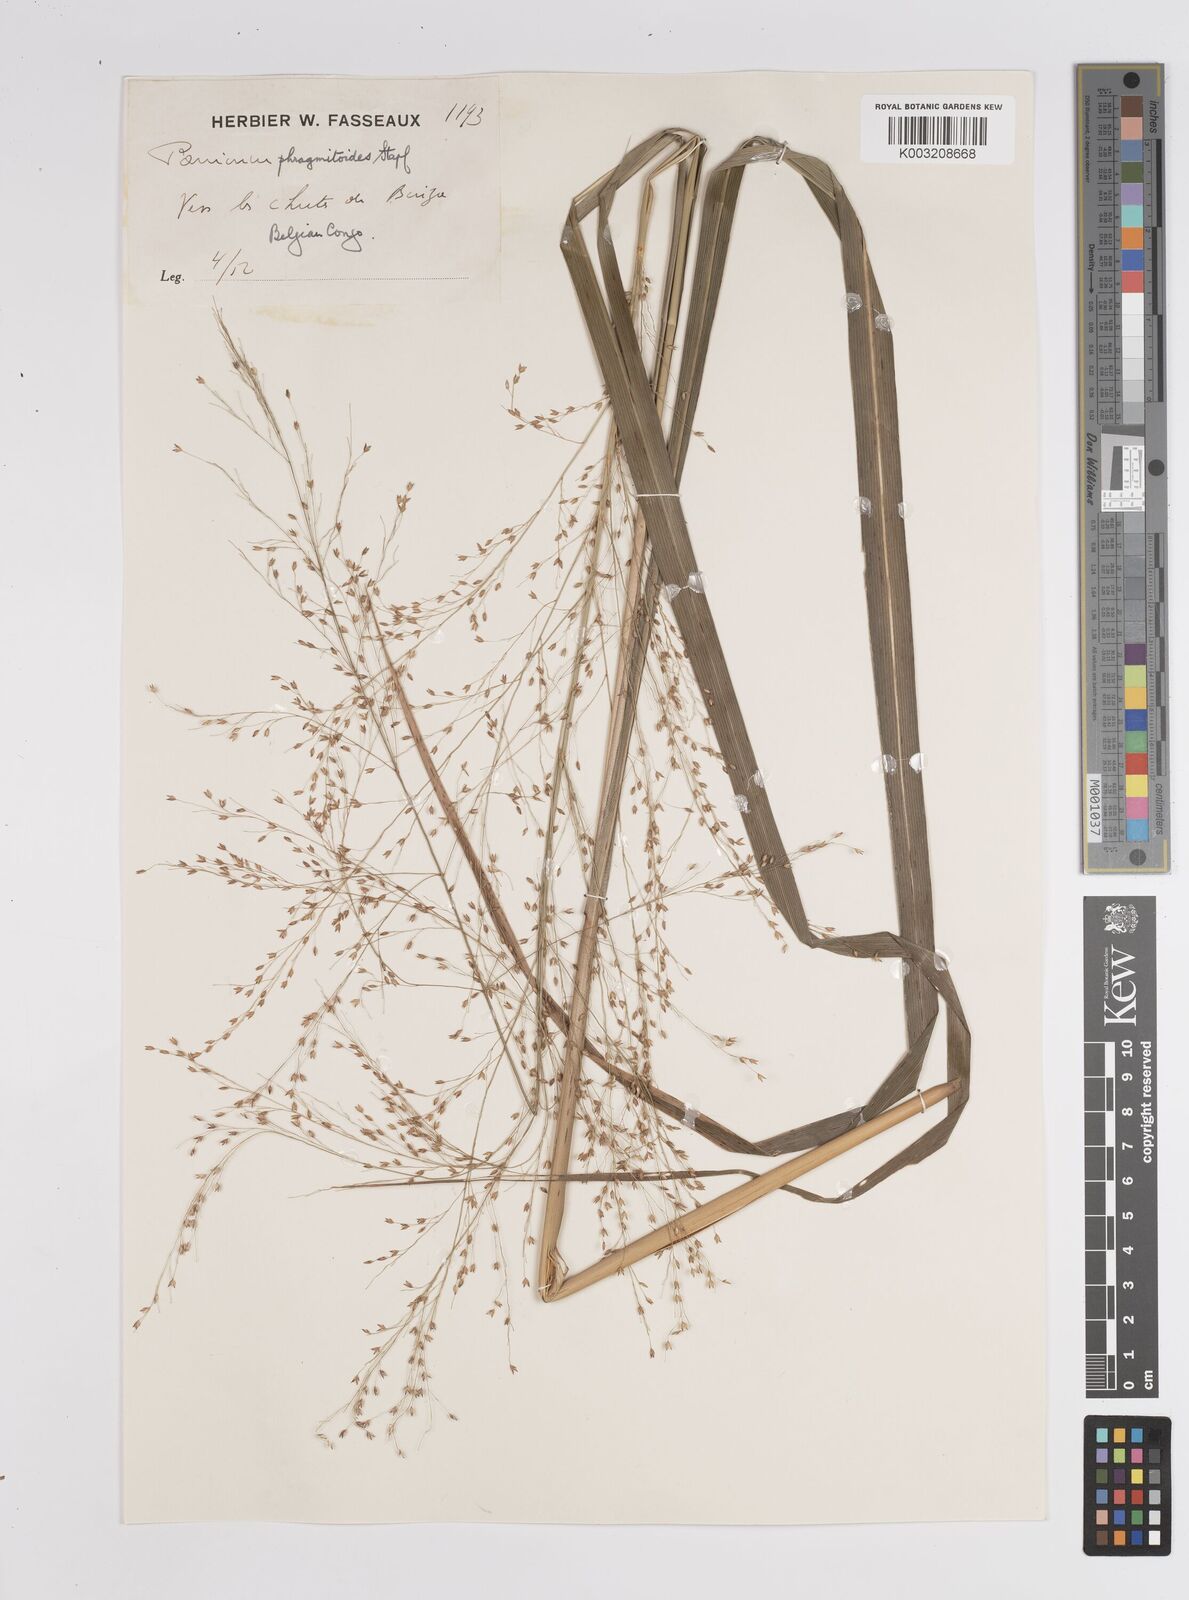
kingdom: Plantae
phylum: Tracheophyta
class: Liliopsida
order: Poales
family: Poaceae
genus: Panicum
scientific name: Panicum phragmitoides
